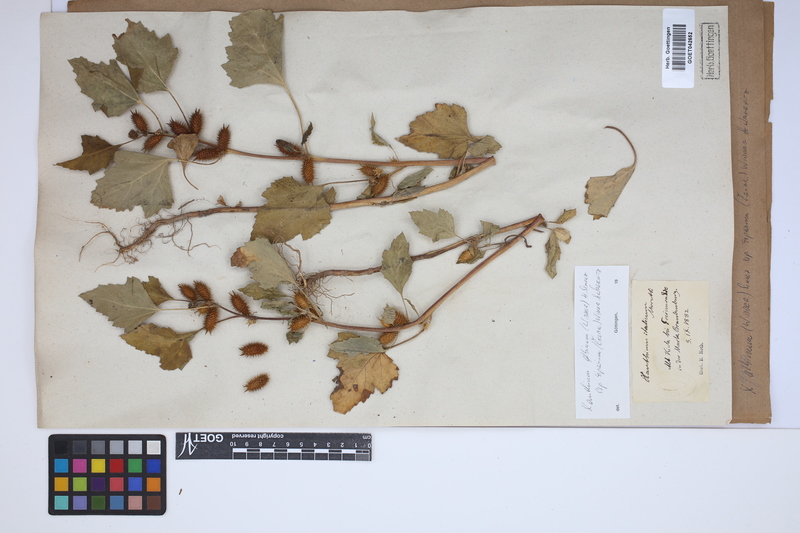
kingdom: Plantae
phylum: Tracheophyta
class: Magnoliopsida
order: Asterales
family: Asteraceae
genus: Xanthium
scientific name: Xanthium orientale
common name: Californian burr
